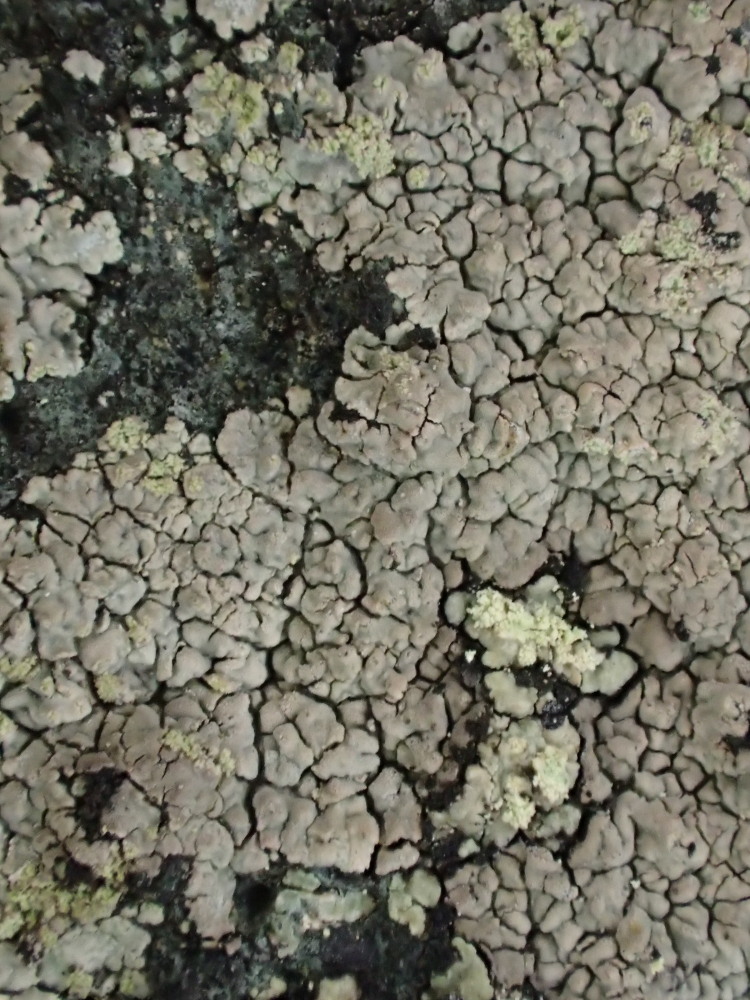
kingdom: Fungi
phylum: Ascomycota
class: Lecanoromycetes
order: Baeomycetales
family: Trapeliaceae
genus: Kleopowiella
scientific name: Kleopowiella placodioides
